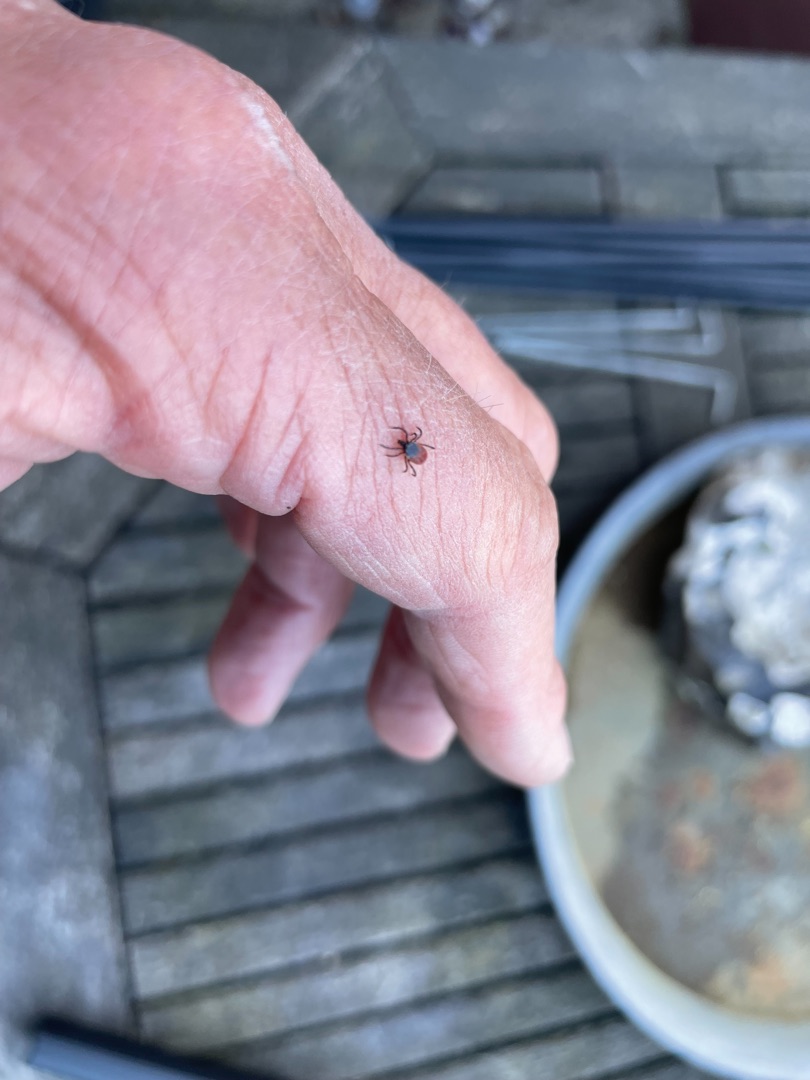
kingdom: Animalia
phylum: Arthropoda
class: Arachnida
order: Ixodida
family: Ixodidae
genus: Ixodes
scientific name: Ixodes ricinus
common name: Skovflåt
